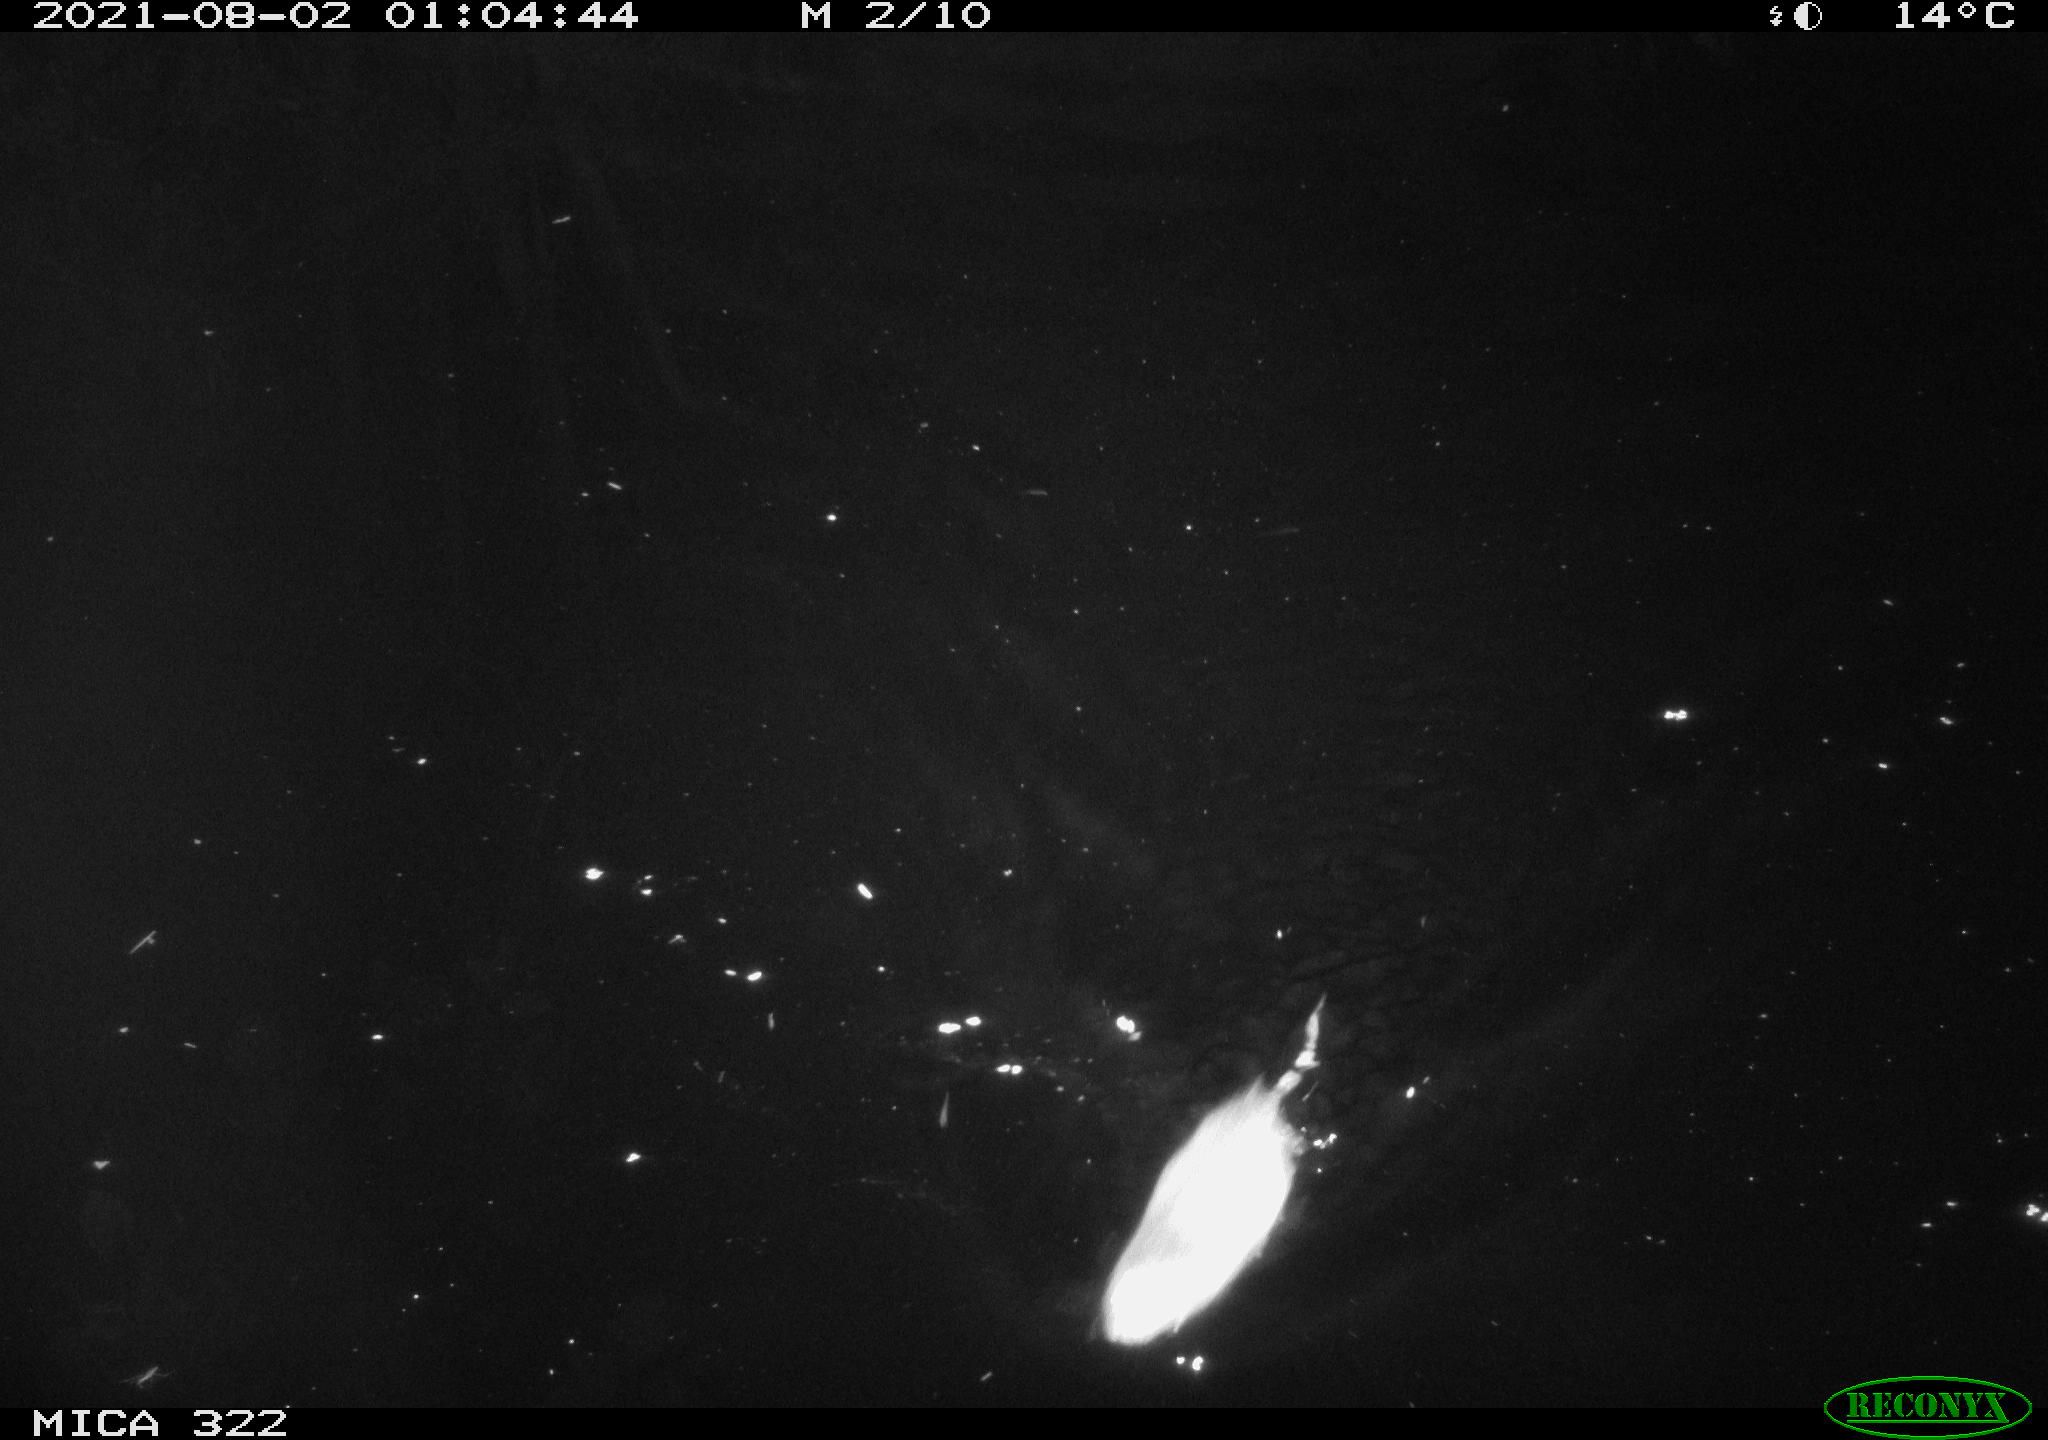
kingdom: Animalia
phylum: Chordata
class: Mammalia
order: Rodentia
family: Cricetidae
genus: Ondatra
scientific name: Ondatra zibethicus
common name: Muskrat
